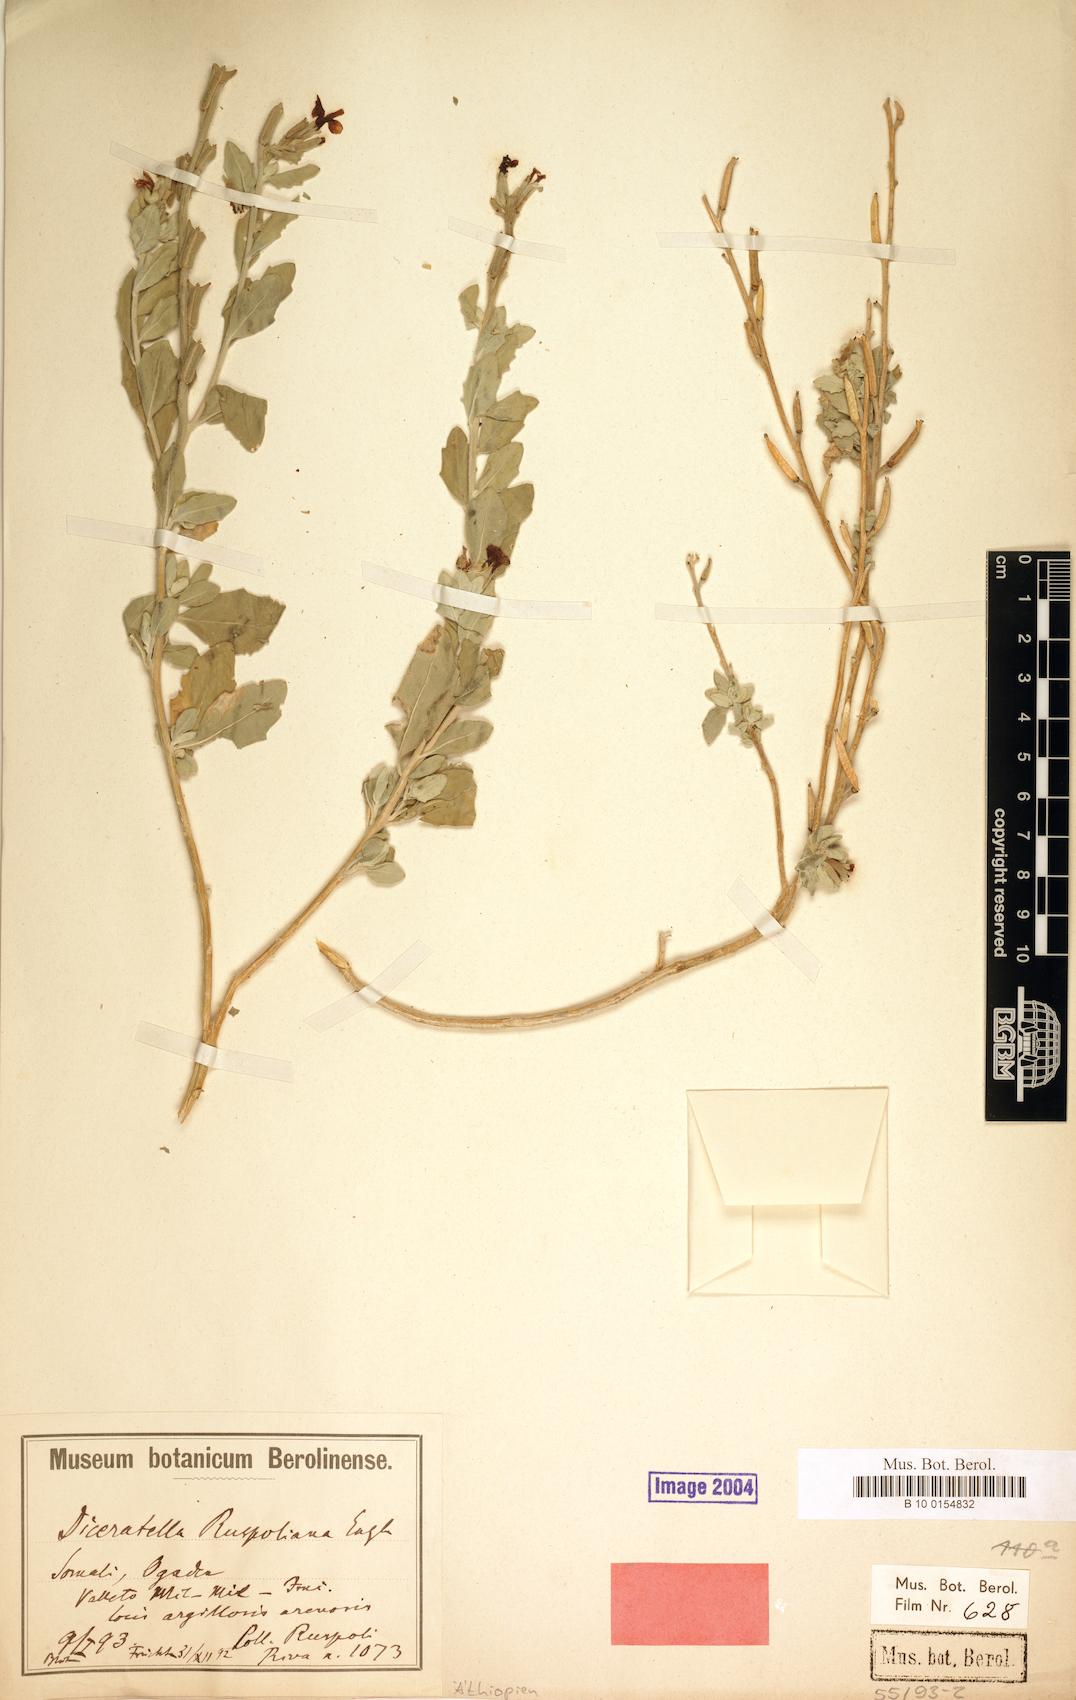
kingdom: Plantae
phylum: Tracheophyta
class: Magnoliopsida
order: Brassicales
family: Brassicaceae
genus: Diceratella
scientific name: Diceratella ruspoliana
